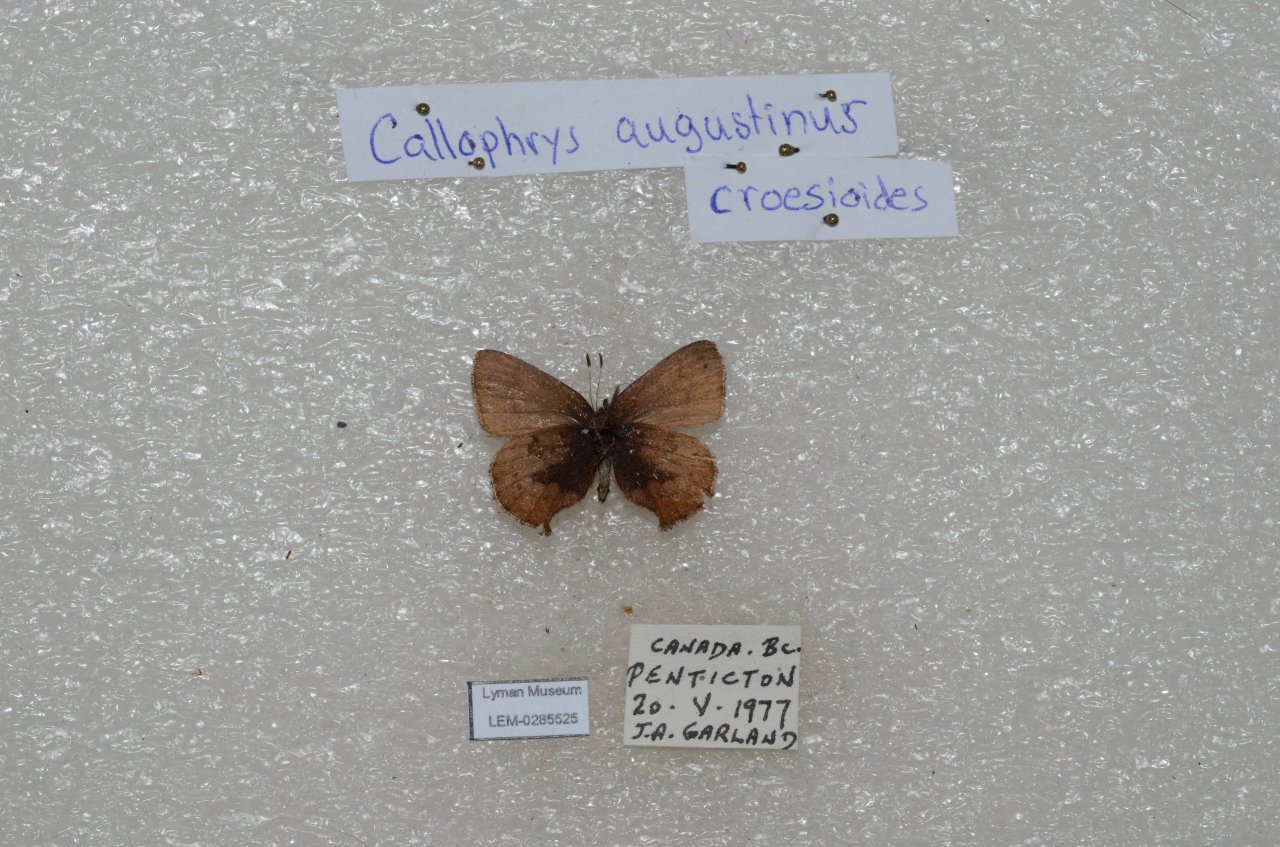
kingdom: Animalia
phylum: Arthropoda
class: Insecta
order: Lepidoptera
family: Lycaenidae
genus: Incisalia
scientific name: Incisalia irioides
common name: Brown Elfin
